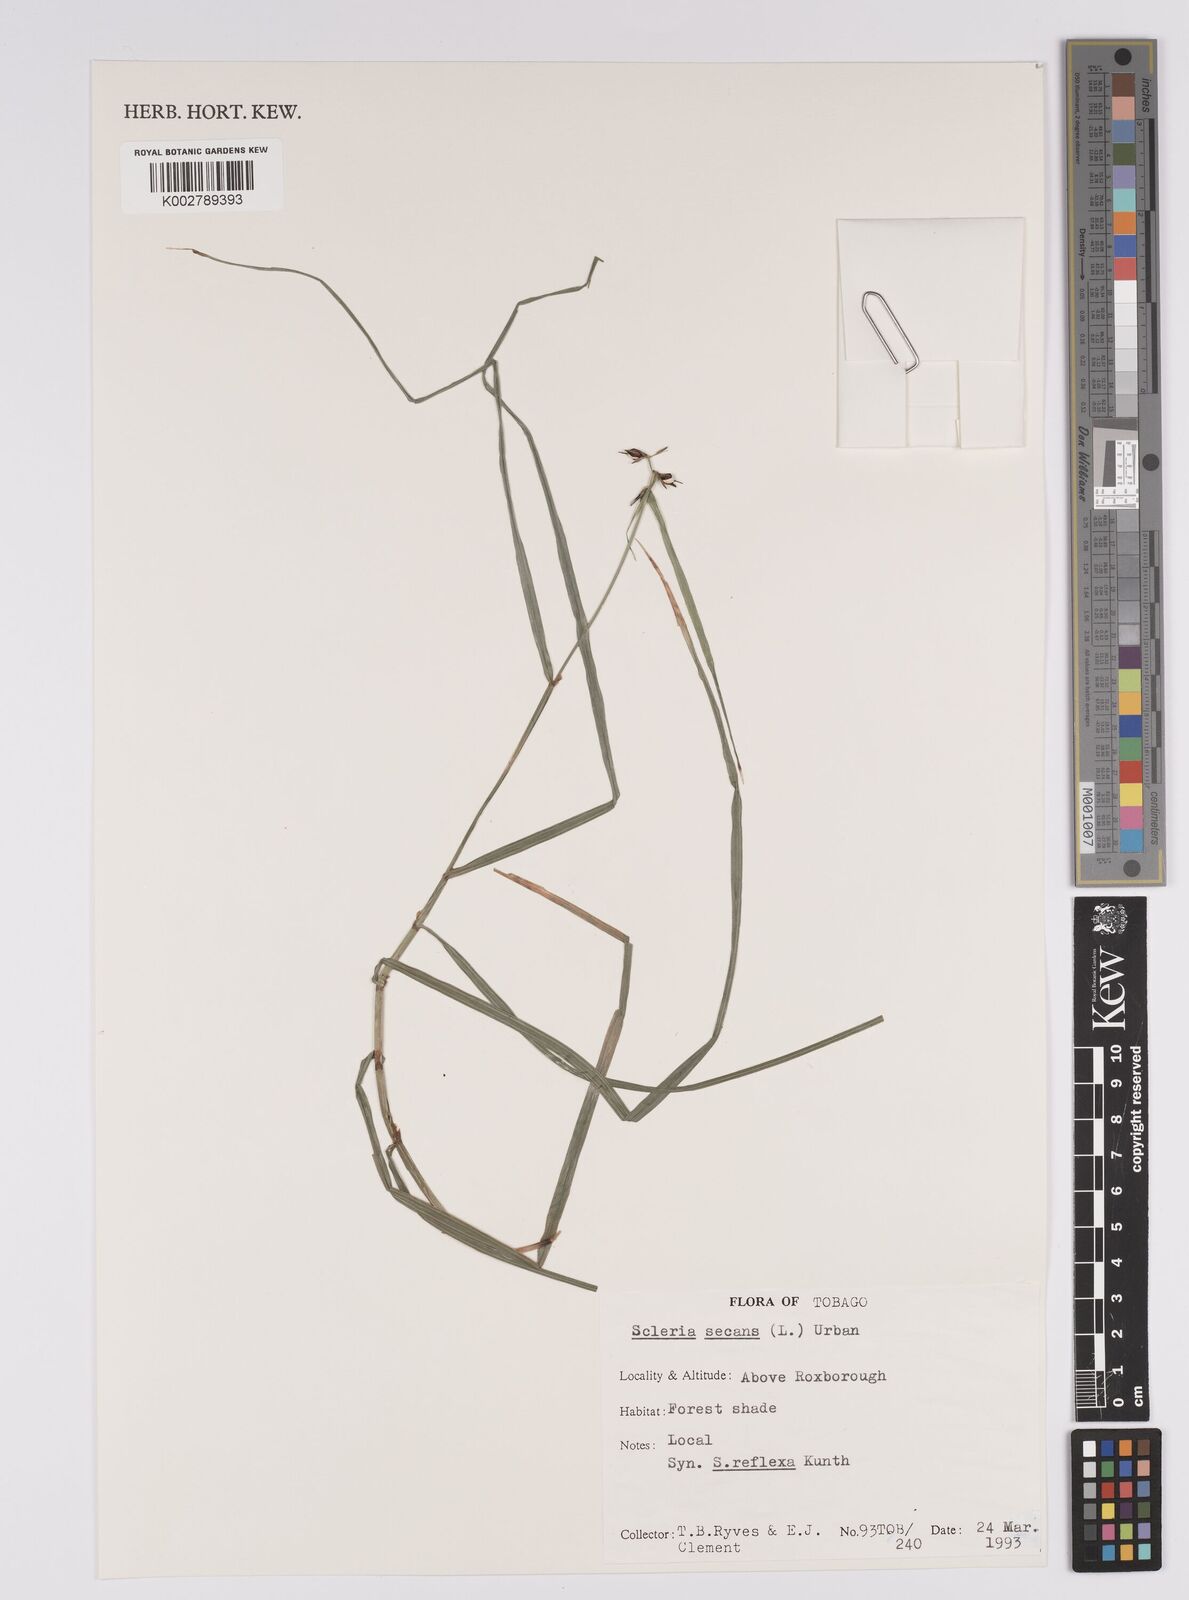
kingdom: Plantae
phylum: Tracheophyta
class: Liliopsida
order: Poales
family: Cyperaceae
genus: Scleria
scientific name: Scleria secans
